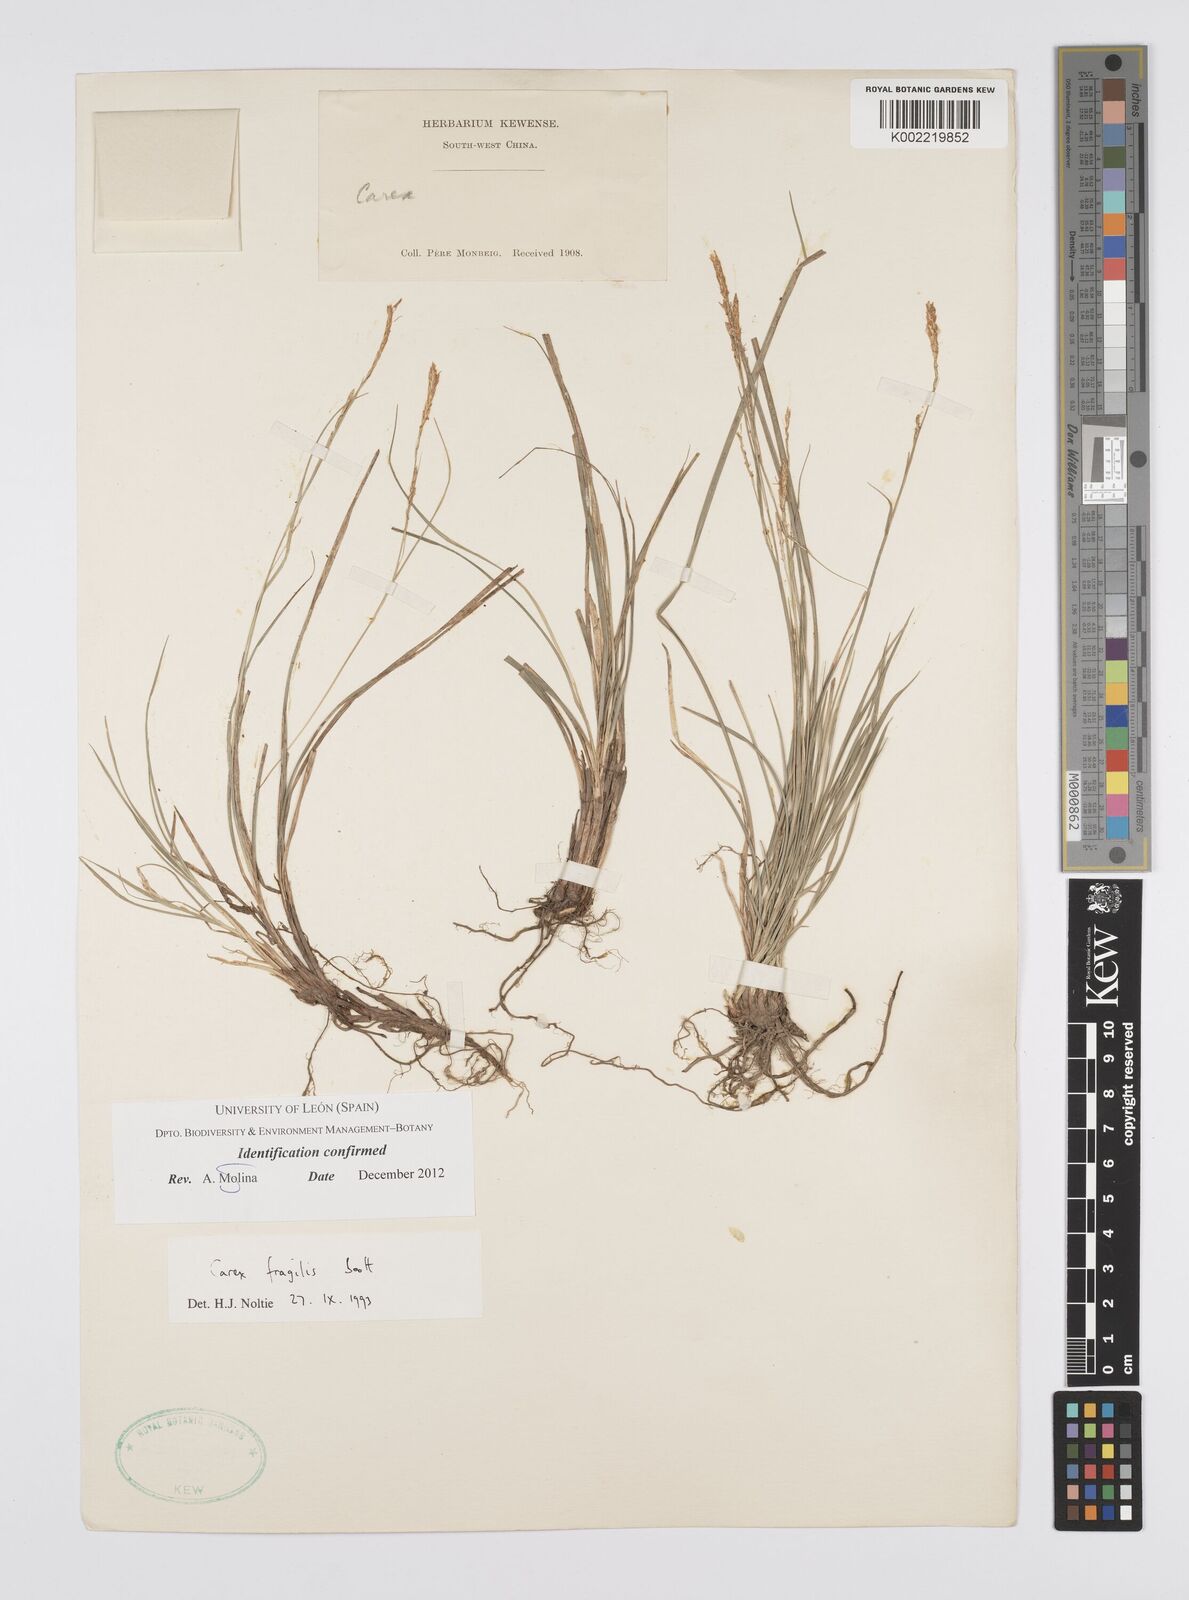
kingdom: Plantae
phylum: Tracheophyta
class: Liliopsida
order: Poales
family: Cyperaceae
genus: Carex
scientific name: Carex fragilis
